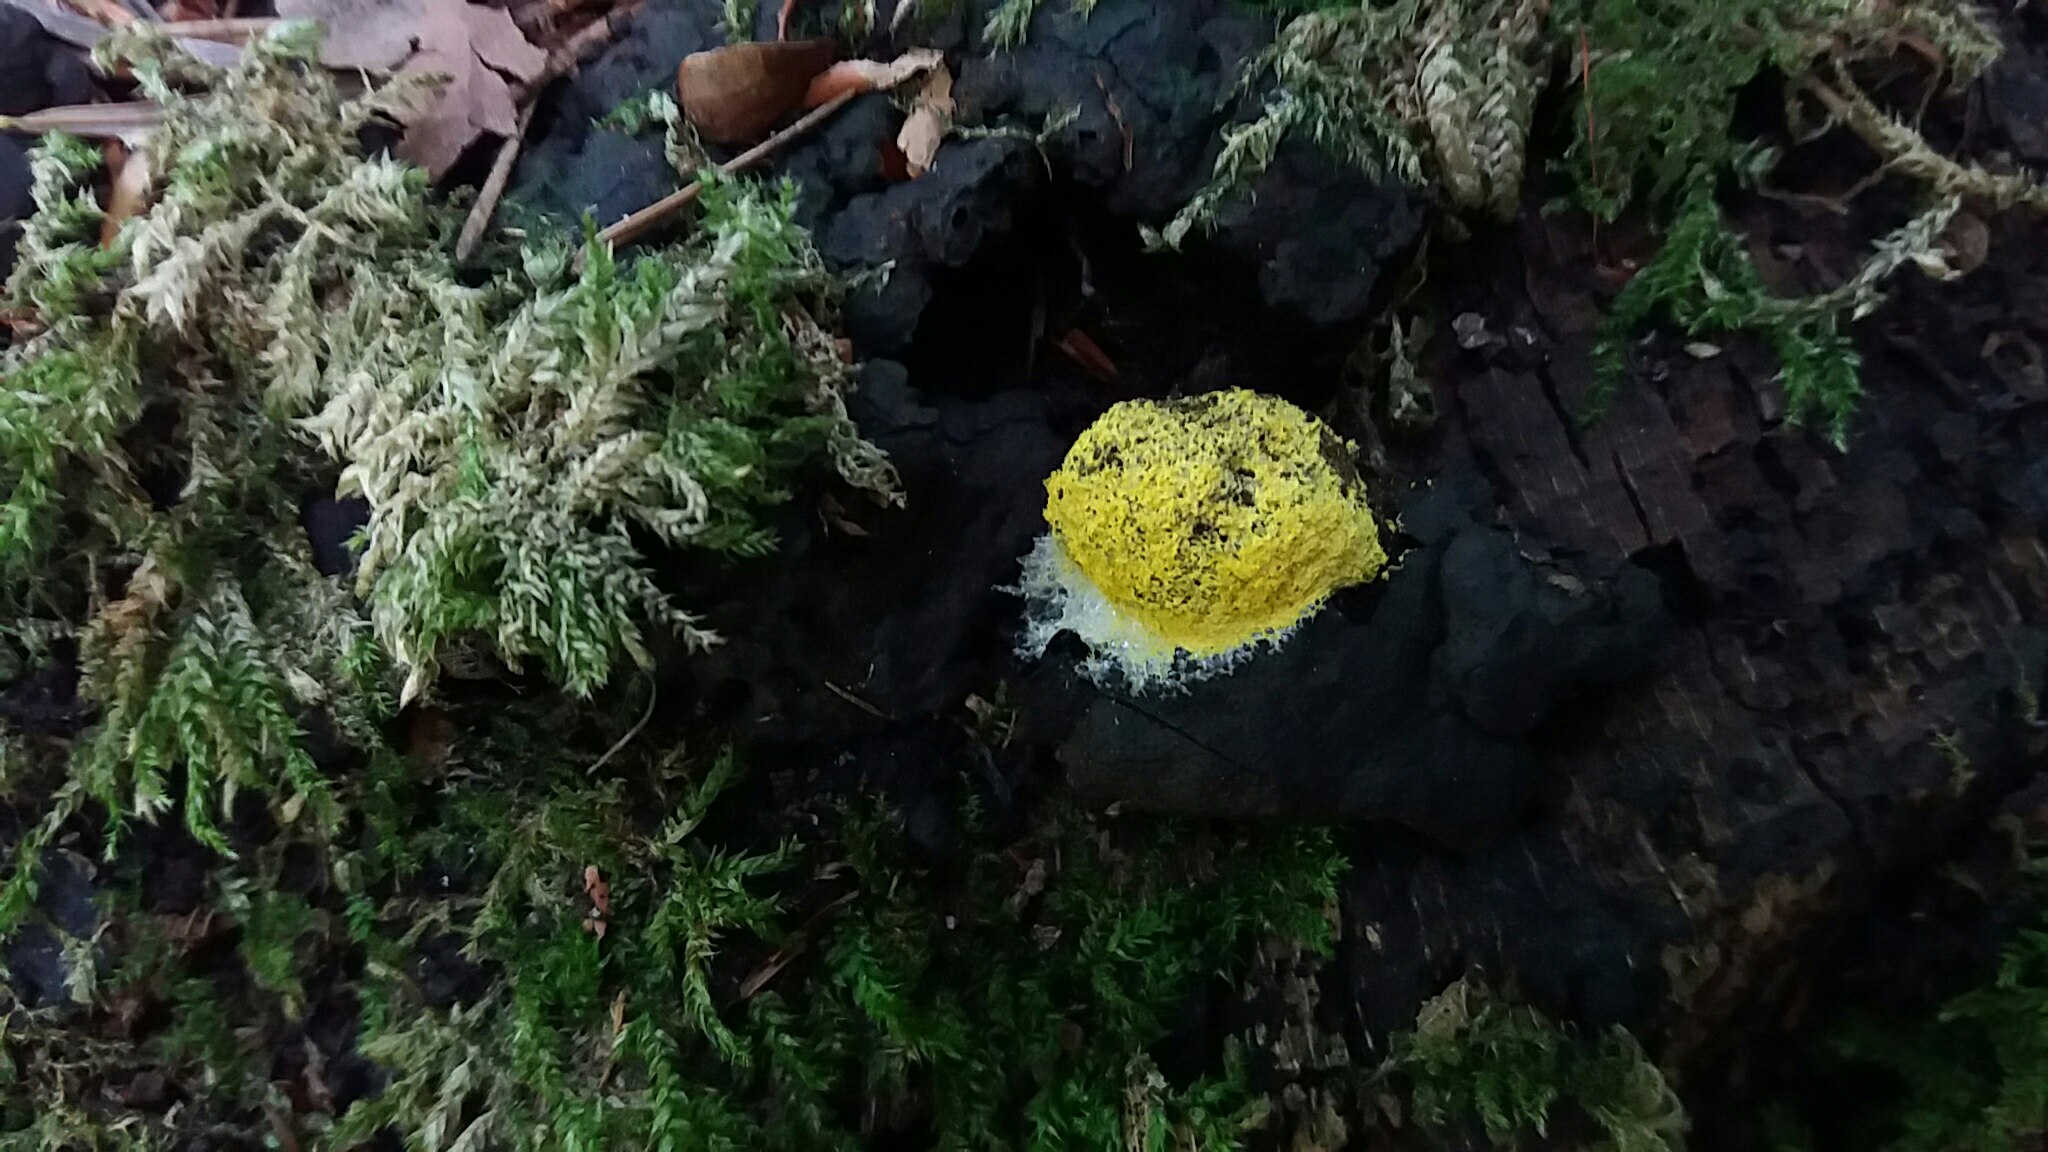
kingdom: Protozoa
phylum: Mycetozoa
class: Myxomycetes
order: Physarales
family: Physaraceae
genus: Fuligo
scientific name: Fuligo septica
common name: gul troldsmør
